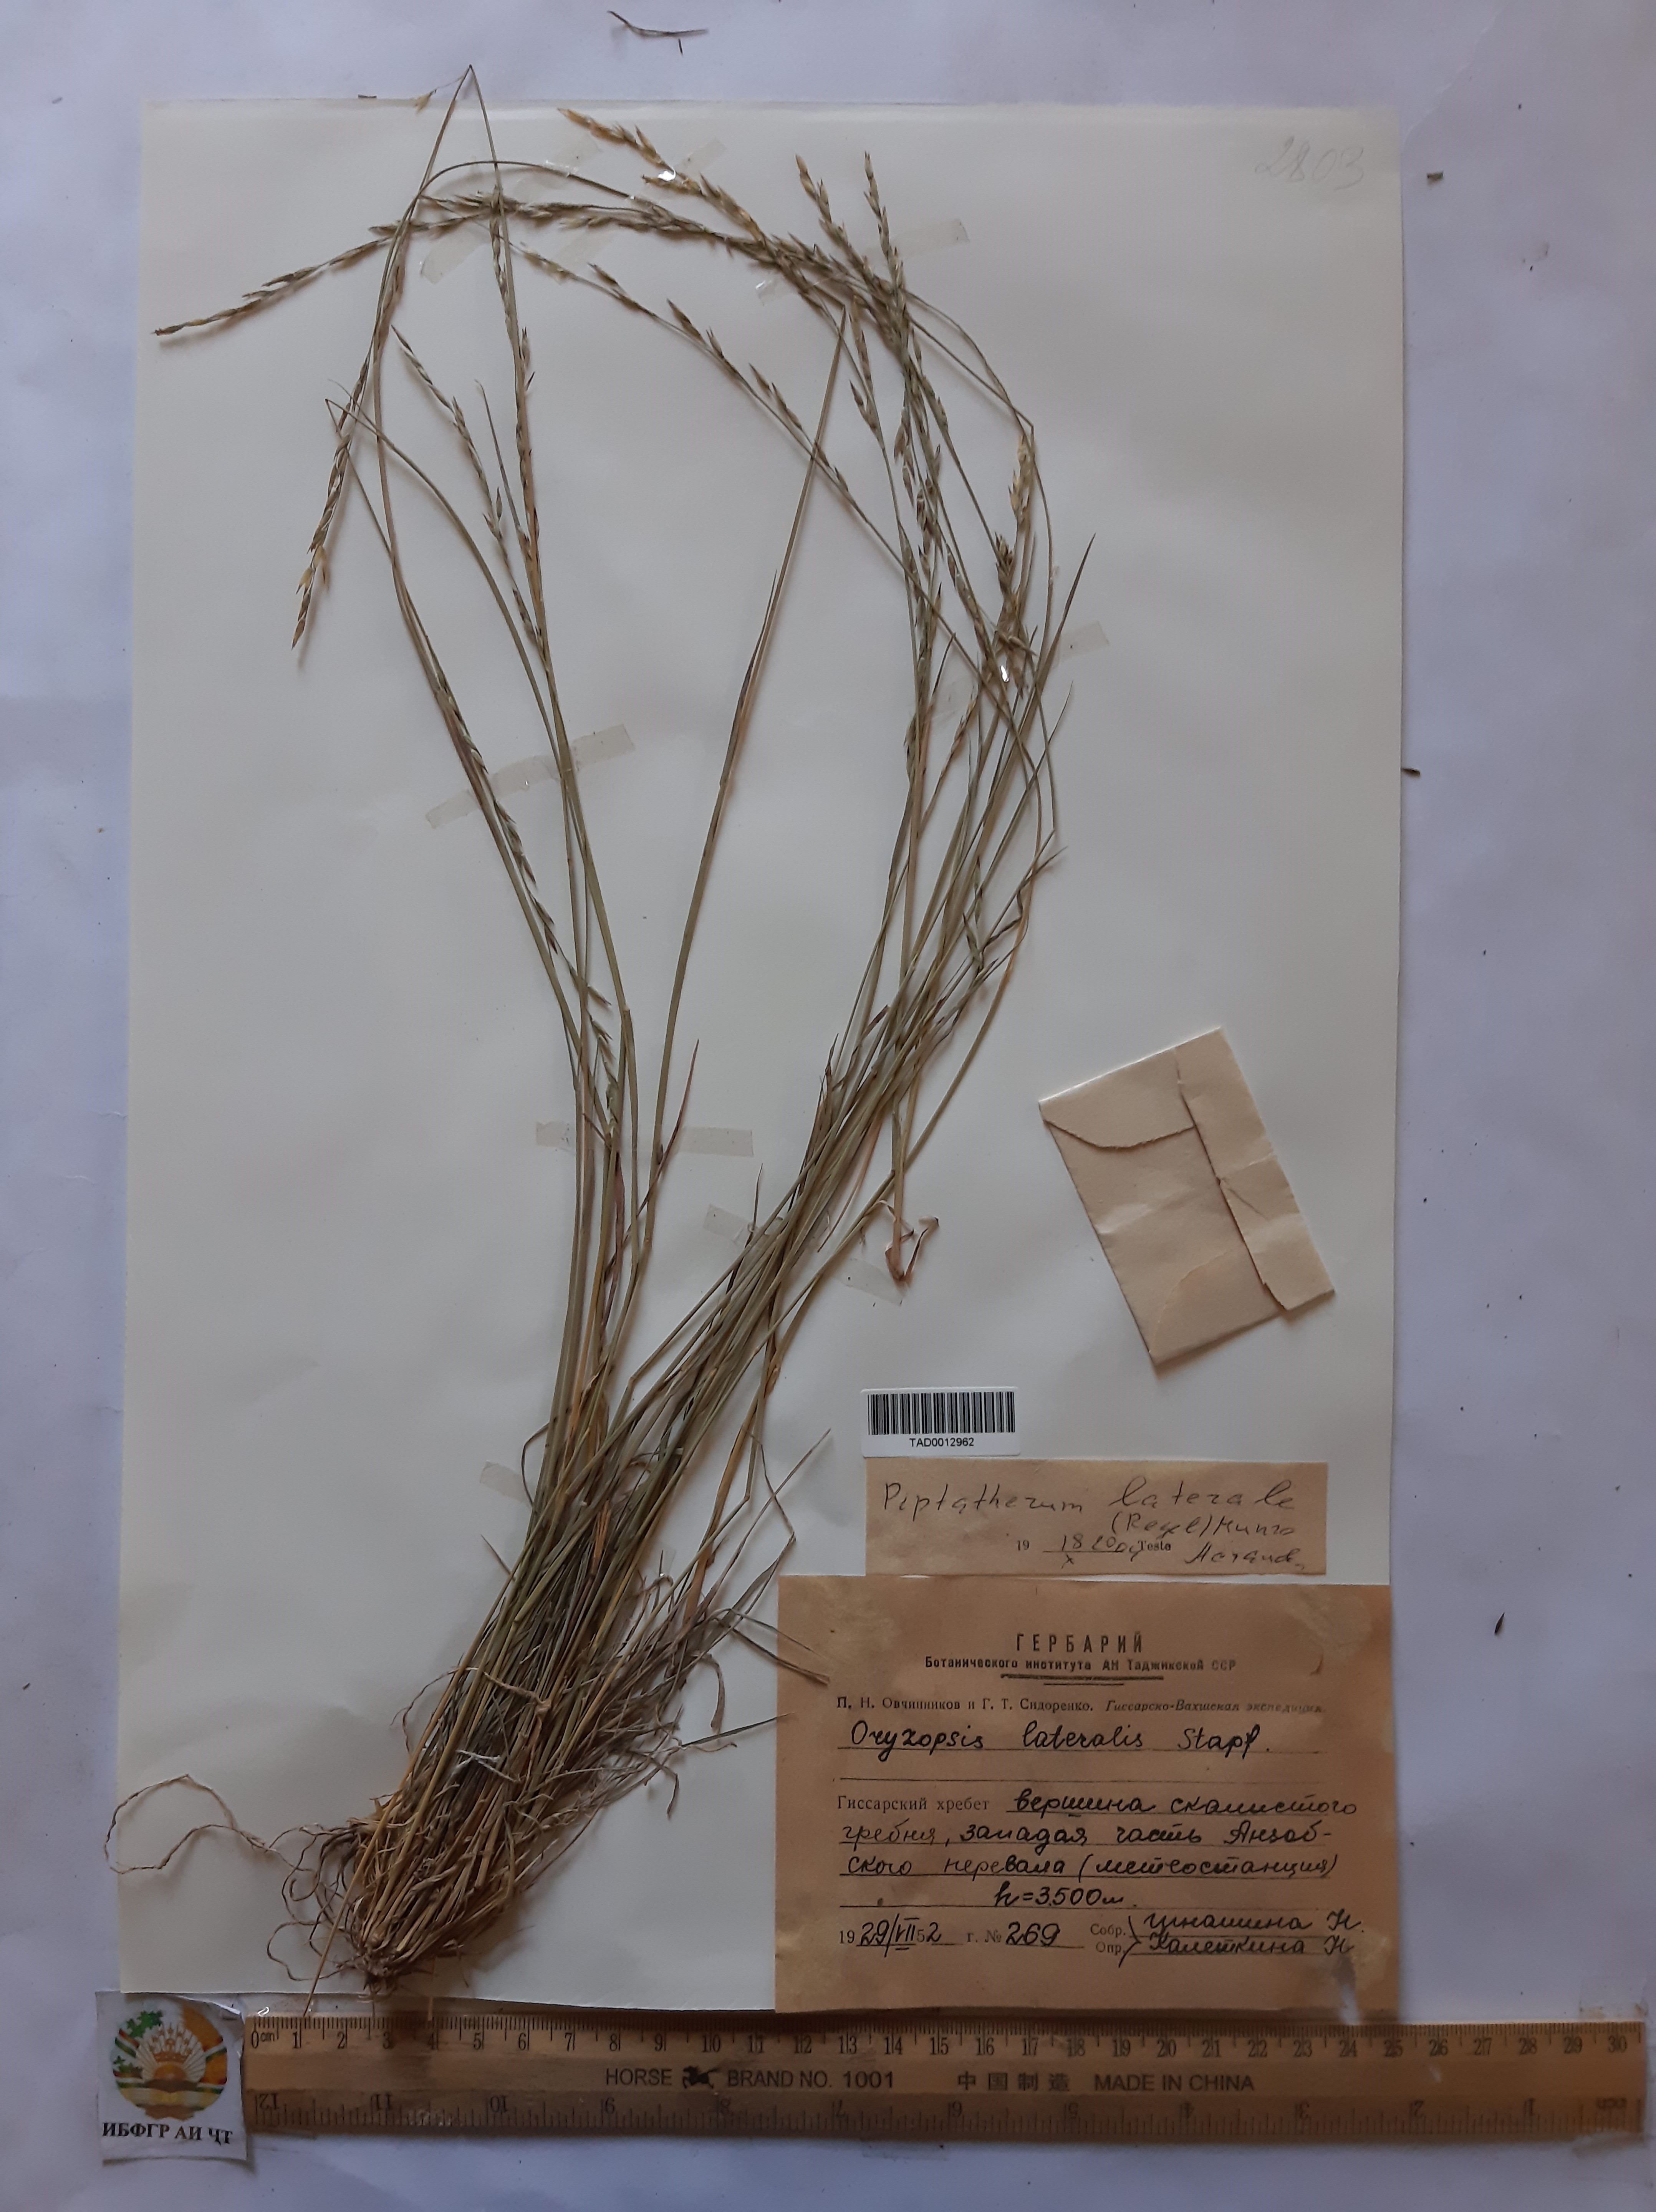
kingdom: Plantae
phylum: Tracheophyta
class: Liliopsida
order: Poales
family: Poaceae
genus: Piptatherum
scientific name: Piptatherum laterale
